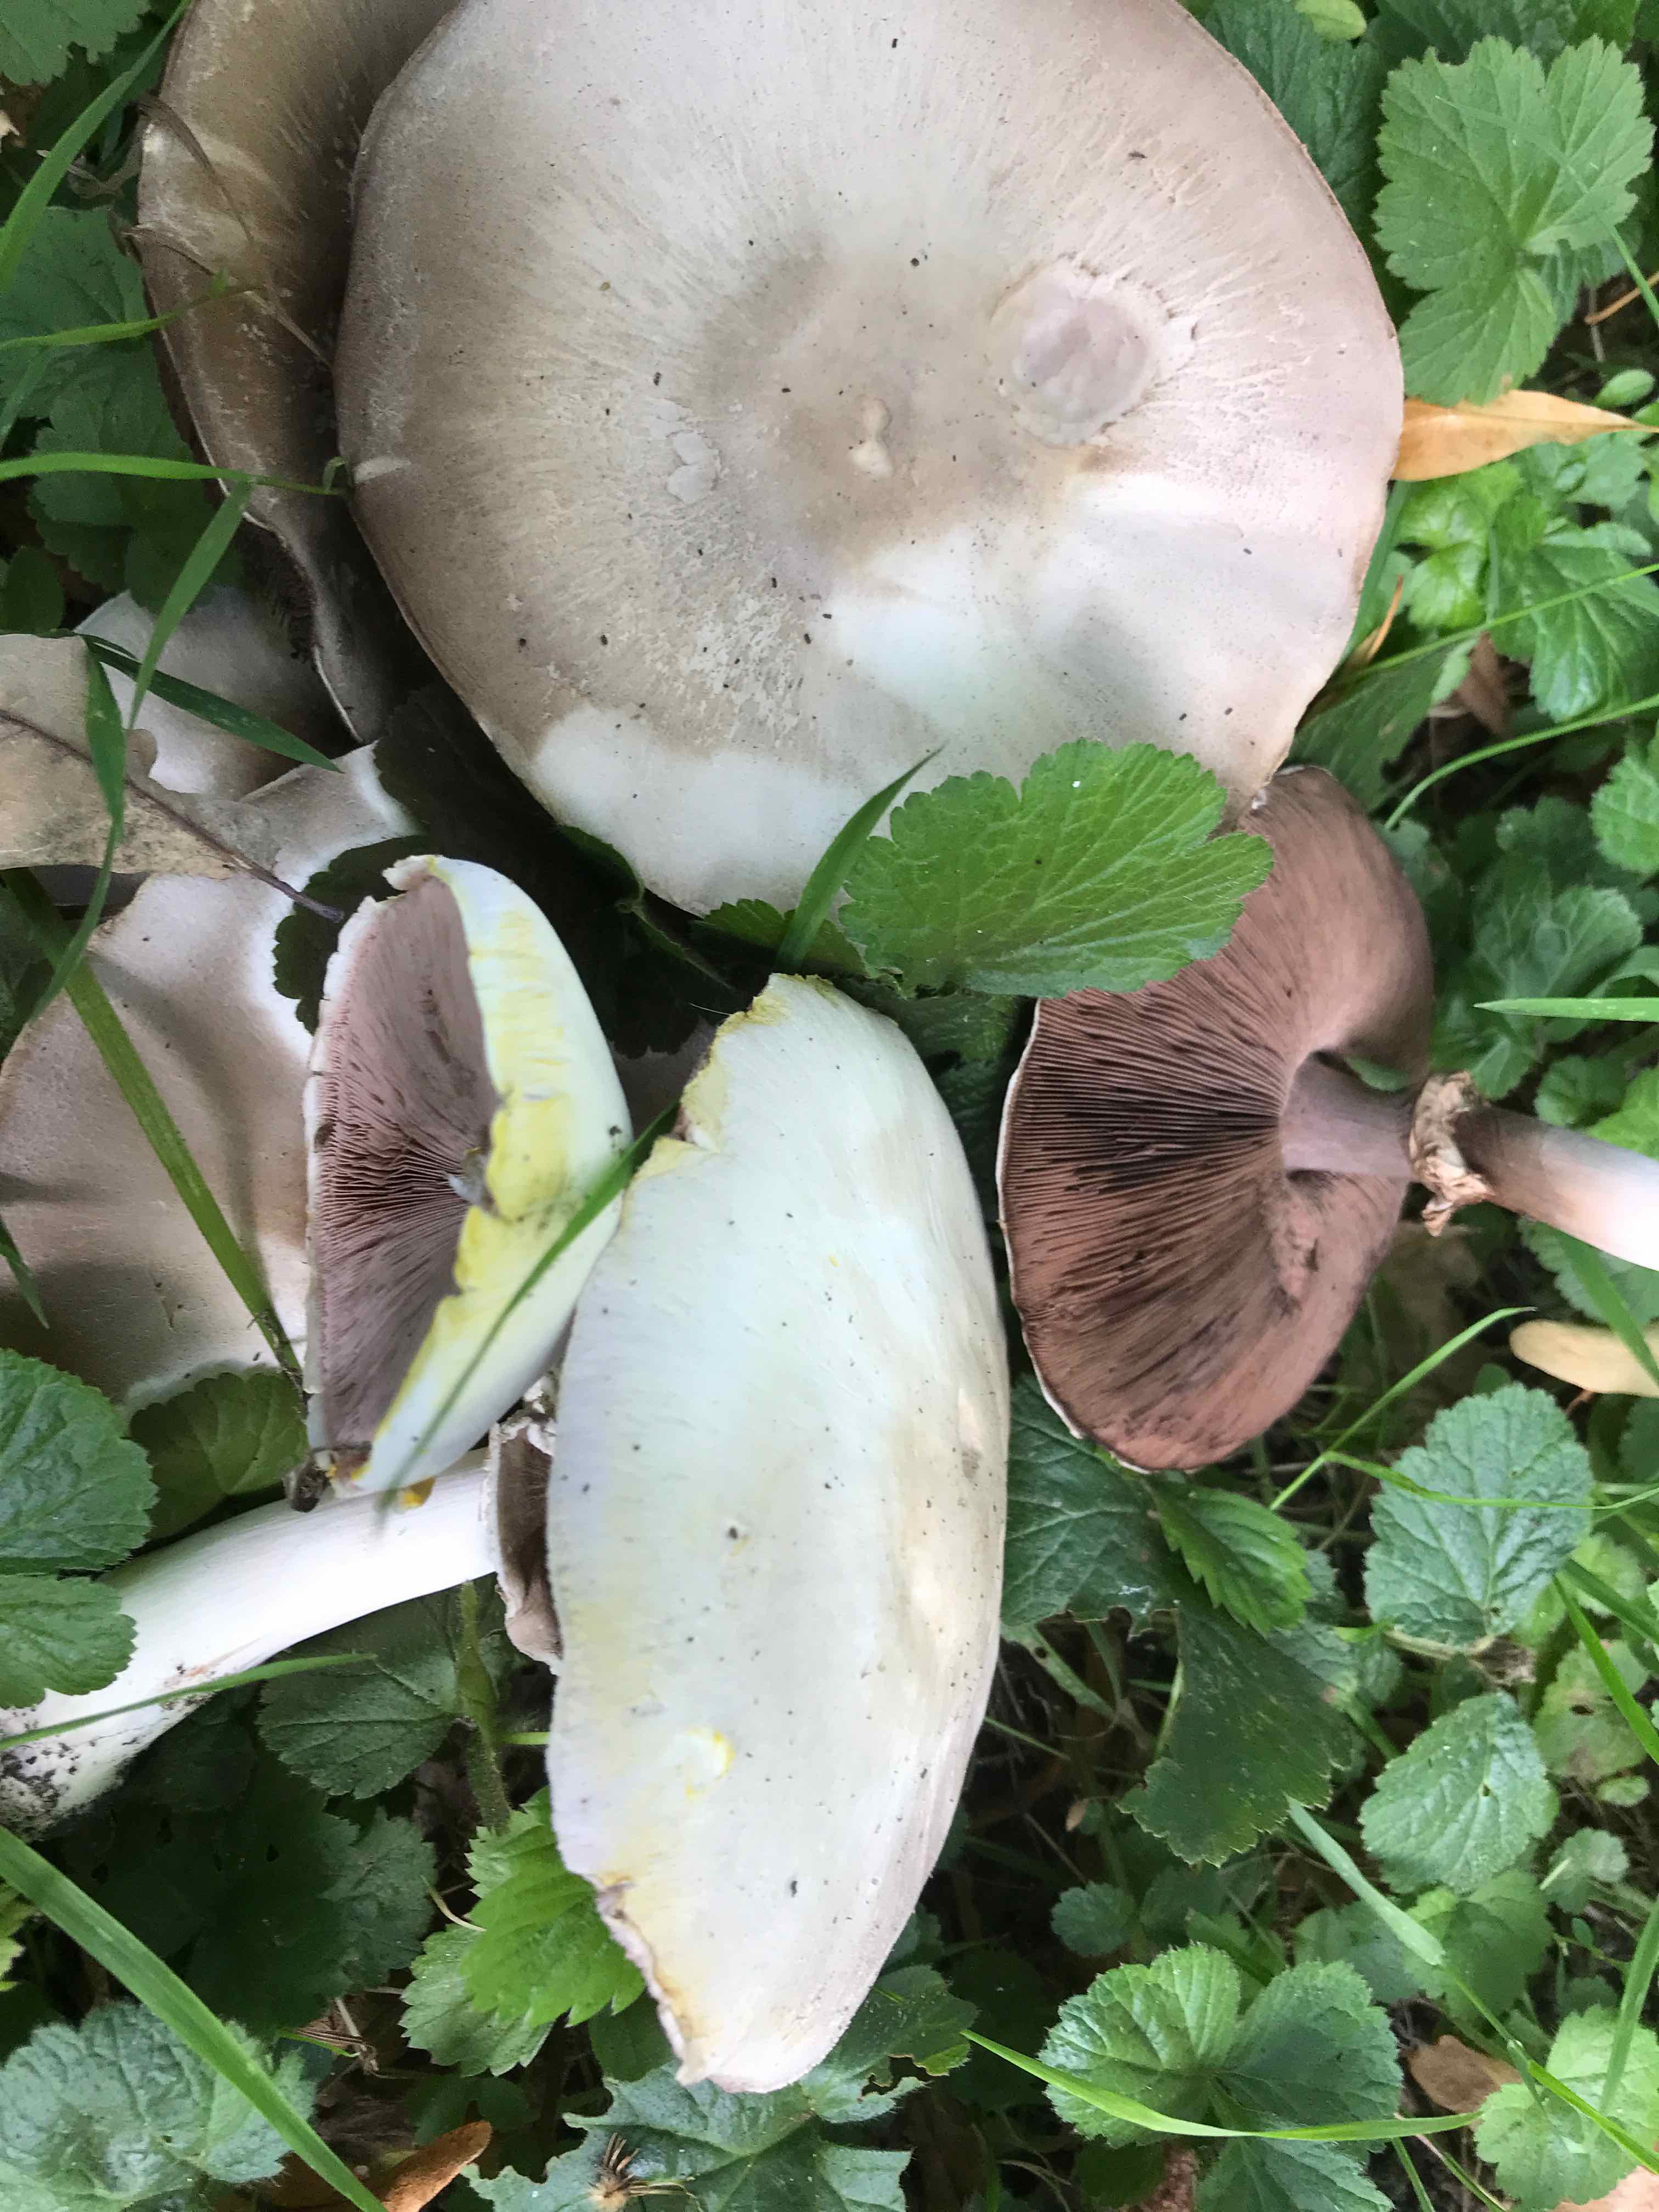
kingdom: Fungi
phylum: Basidiomycota
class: Agaricomycetes
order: Agaricales
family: Agaricaceae
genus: Agaricus
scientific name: Agaricus xanthodermus
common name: karbol-champignon
